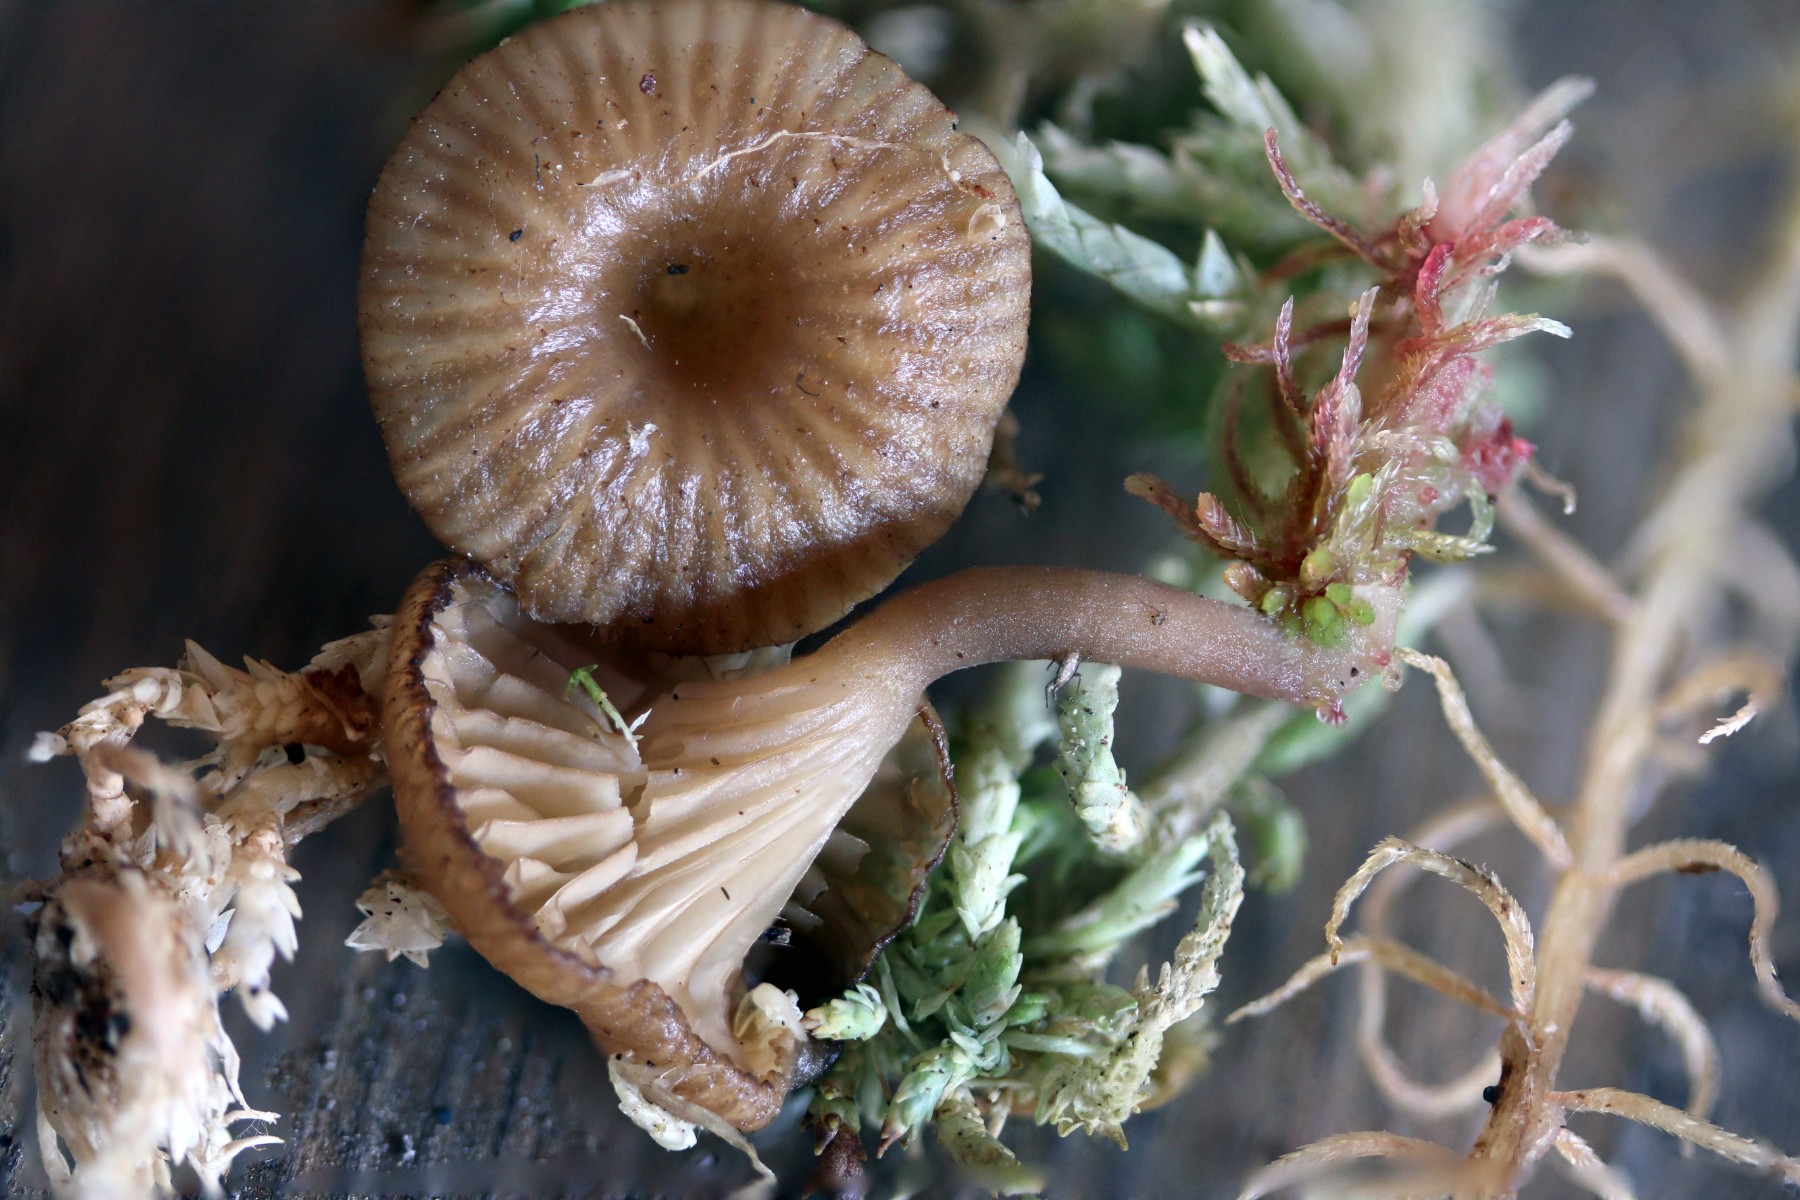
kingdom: Fungi
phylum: Basidiomycota
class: Agaricomycetes
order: Agaricales
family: Hygrophoraceae
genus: Arrhenia
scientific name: Arrhenia gerardiana
